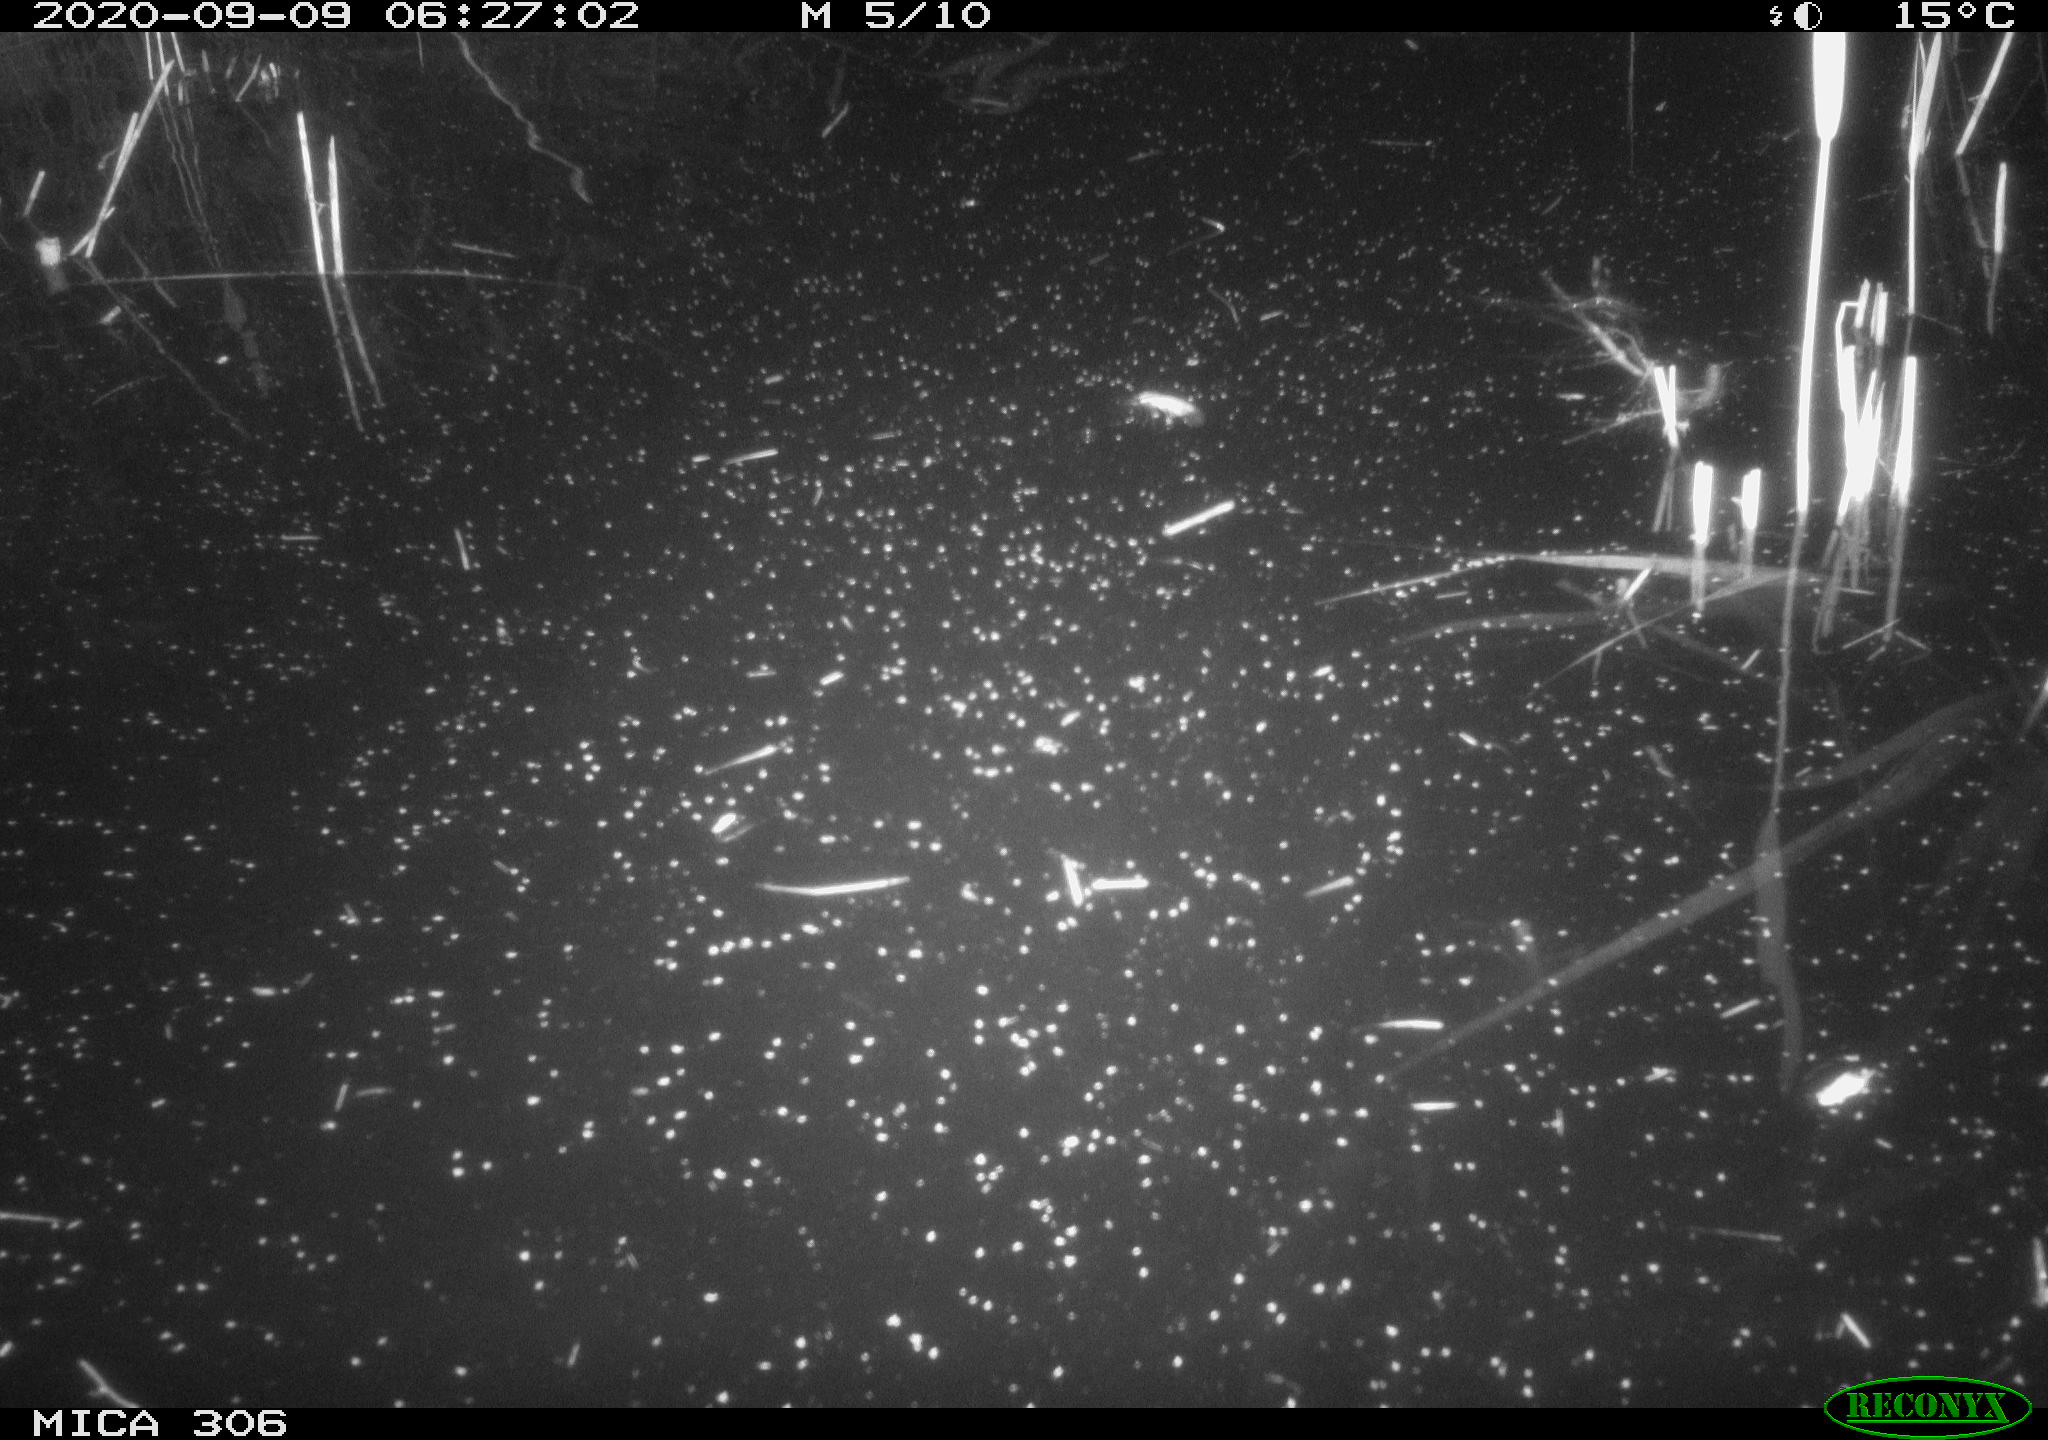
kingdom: Animalia
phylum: Chordata
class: Mammalia
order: Rodentia
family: Cricetidae
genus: Ondatra
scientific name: Ondatra zibethicus
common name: Muskrat
